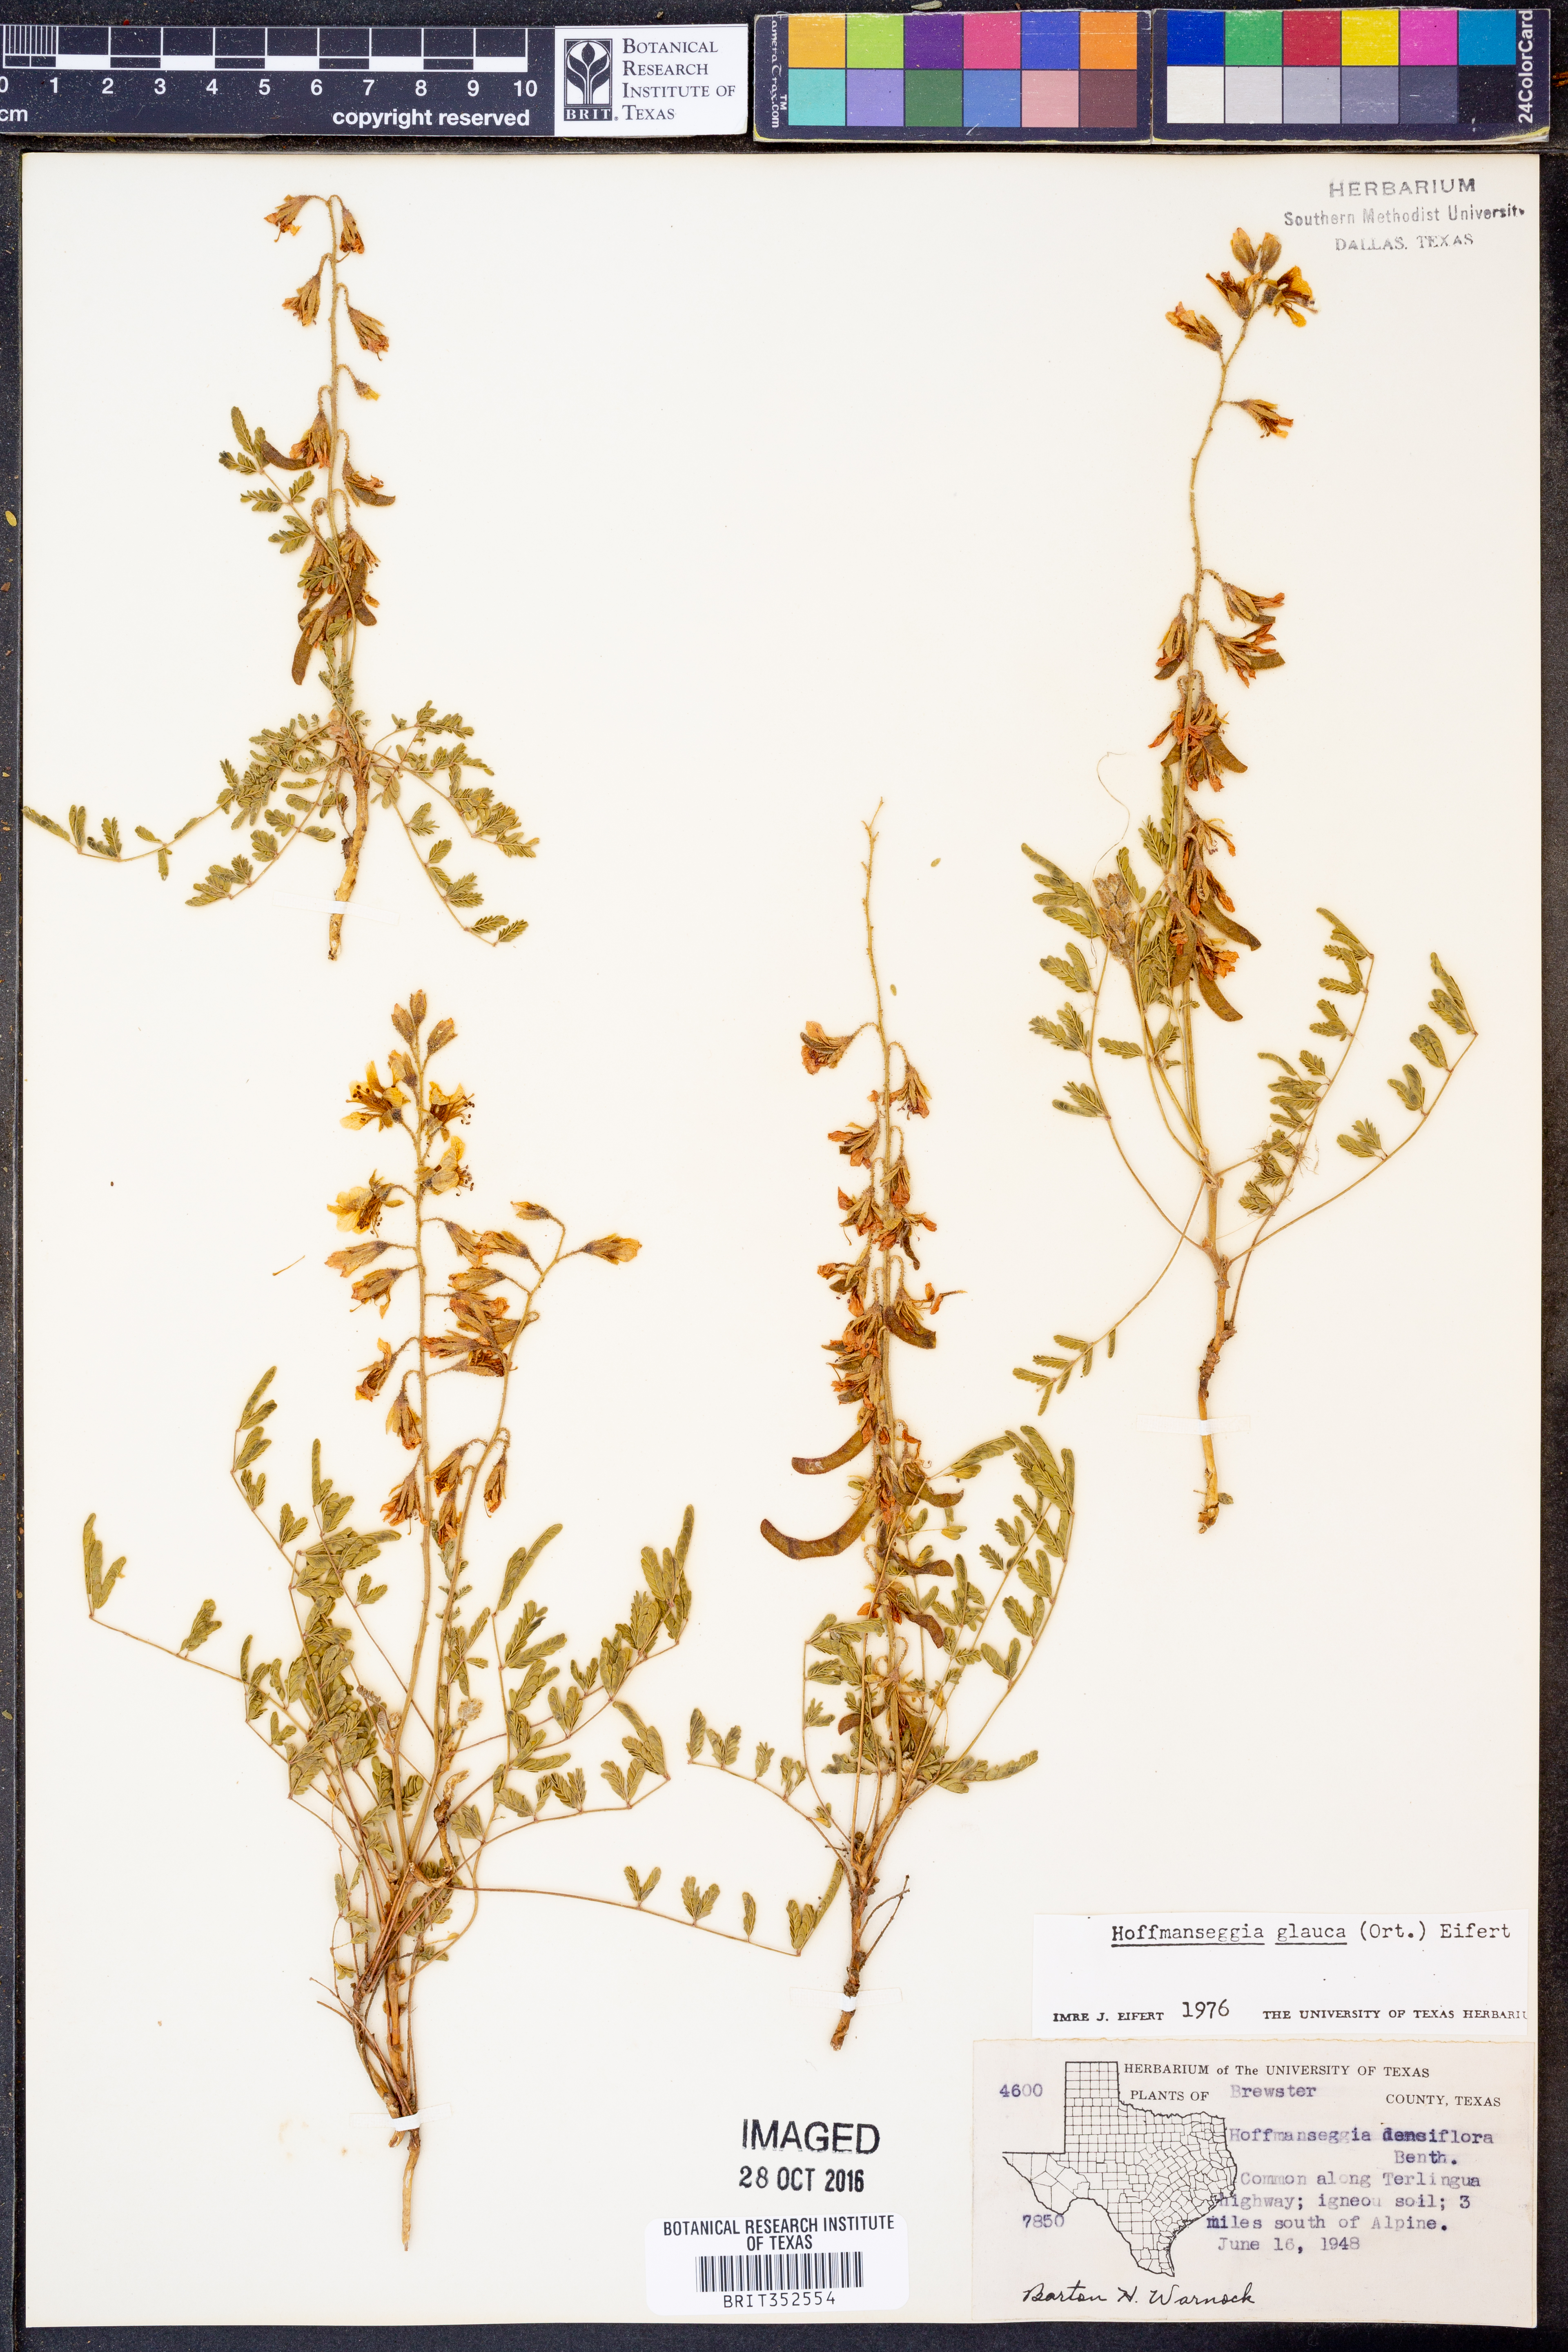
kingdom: Plantae
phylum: Tracheophyta
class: Magnoliopsida
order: Fabales
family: Fabaceae
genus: Hoffmannseggia
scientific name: Hoffmannseggia glauca
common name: Pignut
